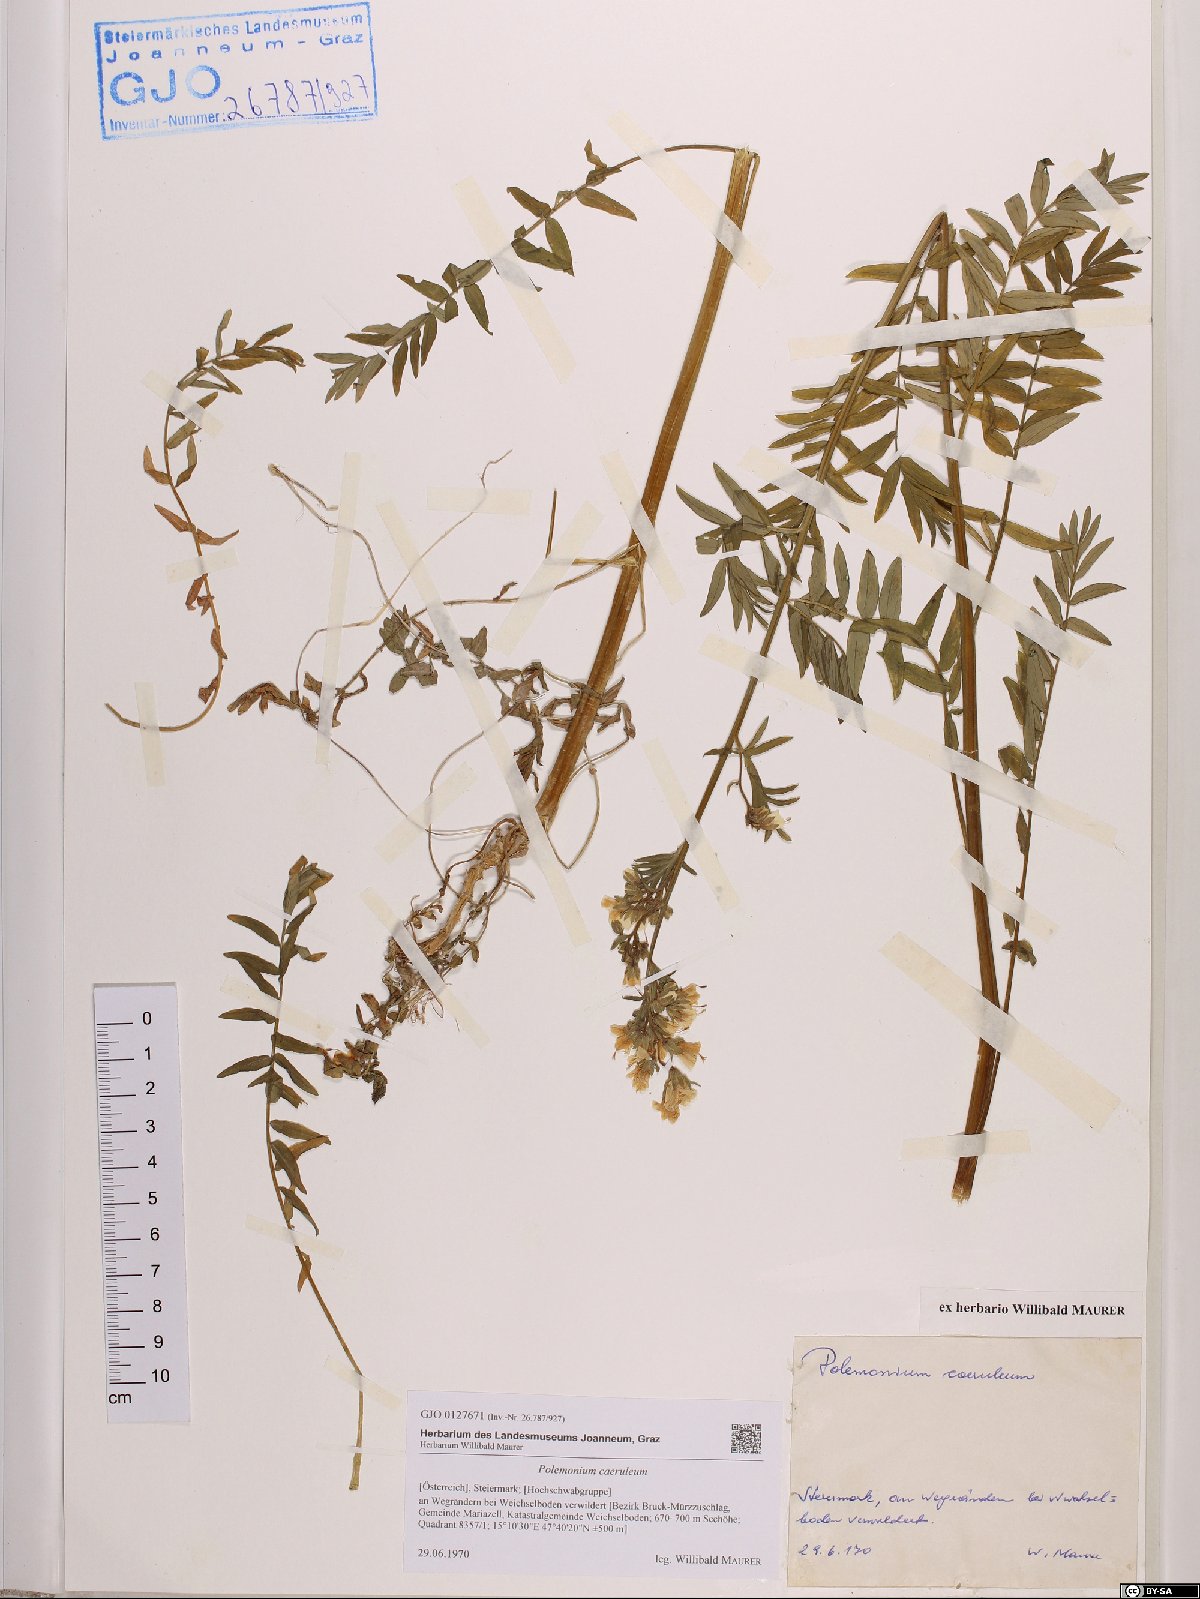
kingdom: Plantae
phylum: Tracheophyta
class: Magnoliopsida
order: Ericales
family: Polemoniaceae
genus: Polemonium
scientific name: Polemonium caeruleum
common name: Jacob's-ladder
